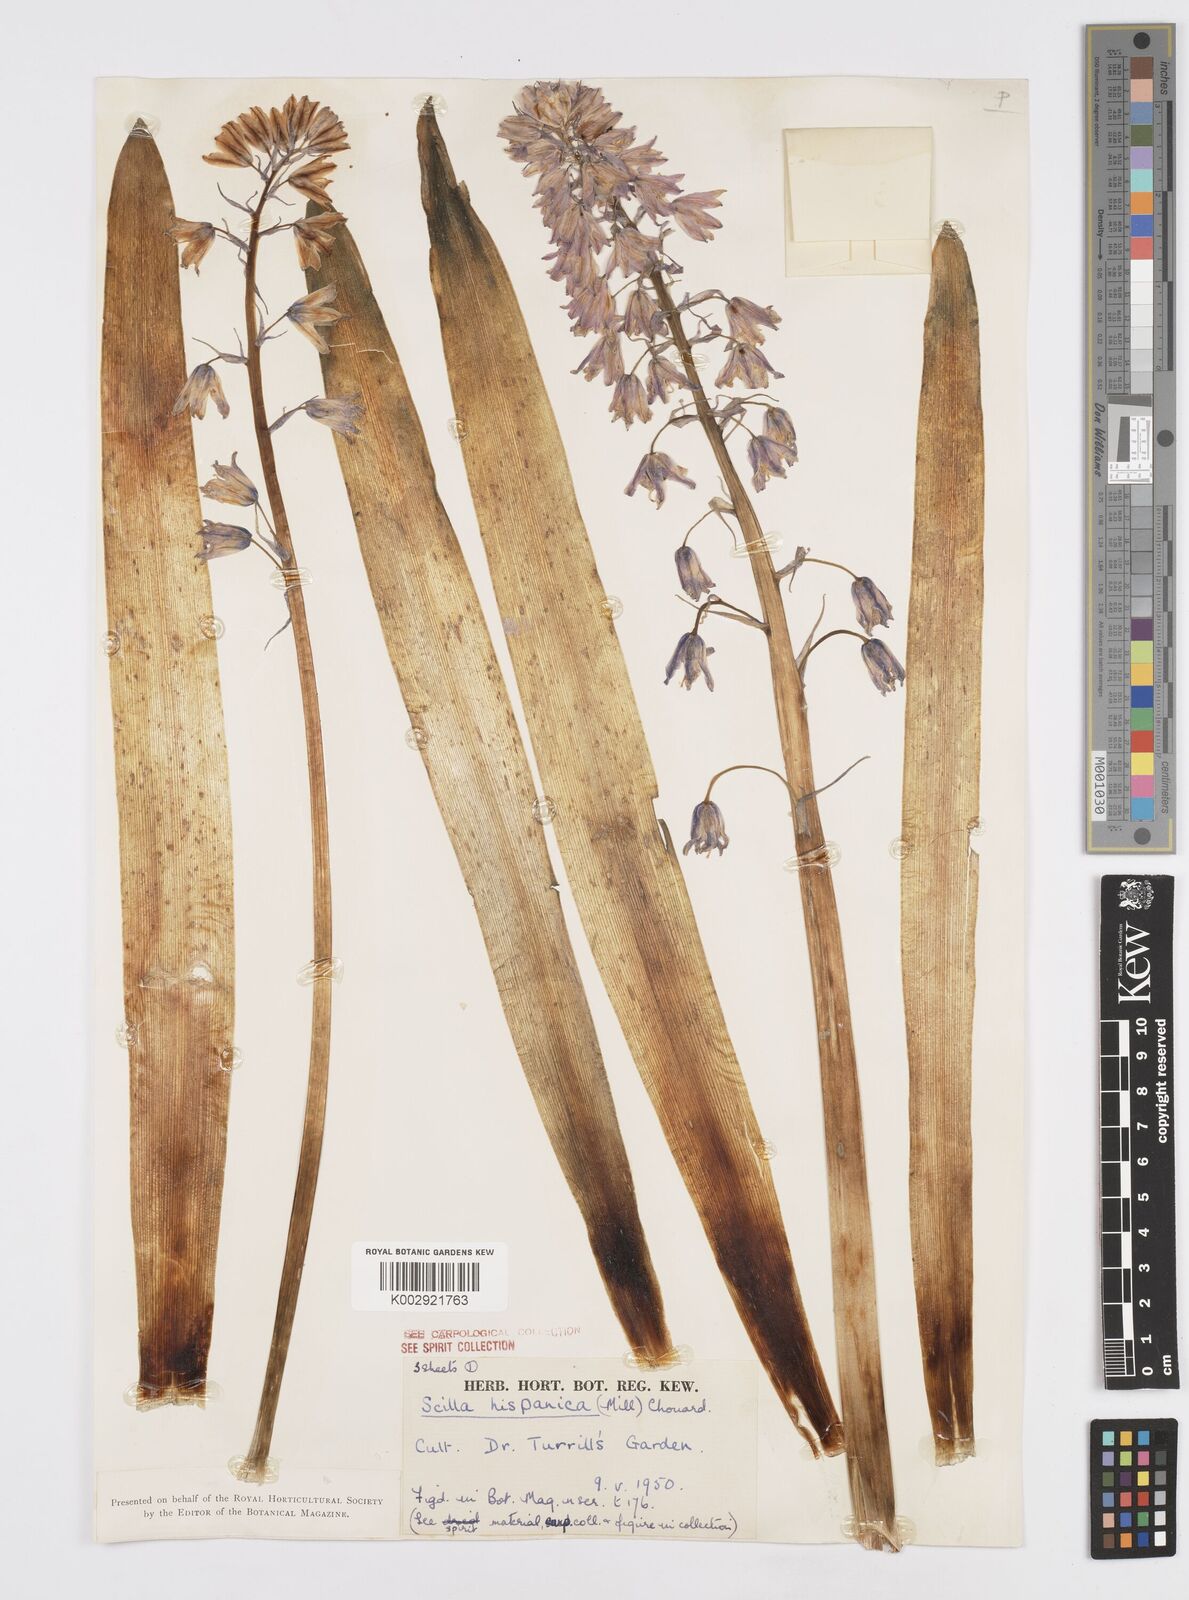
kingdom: Plantae
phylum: Tracheophyta
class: Liliopsida
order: Asparagales
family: Asparagaceae
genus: Hyacinthoides
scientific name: Hyacinthoides hispanica
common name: Spanish bluebell
